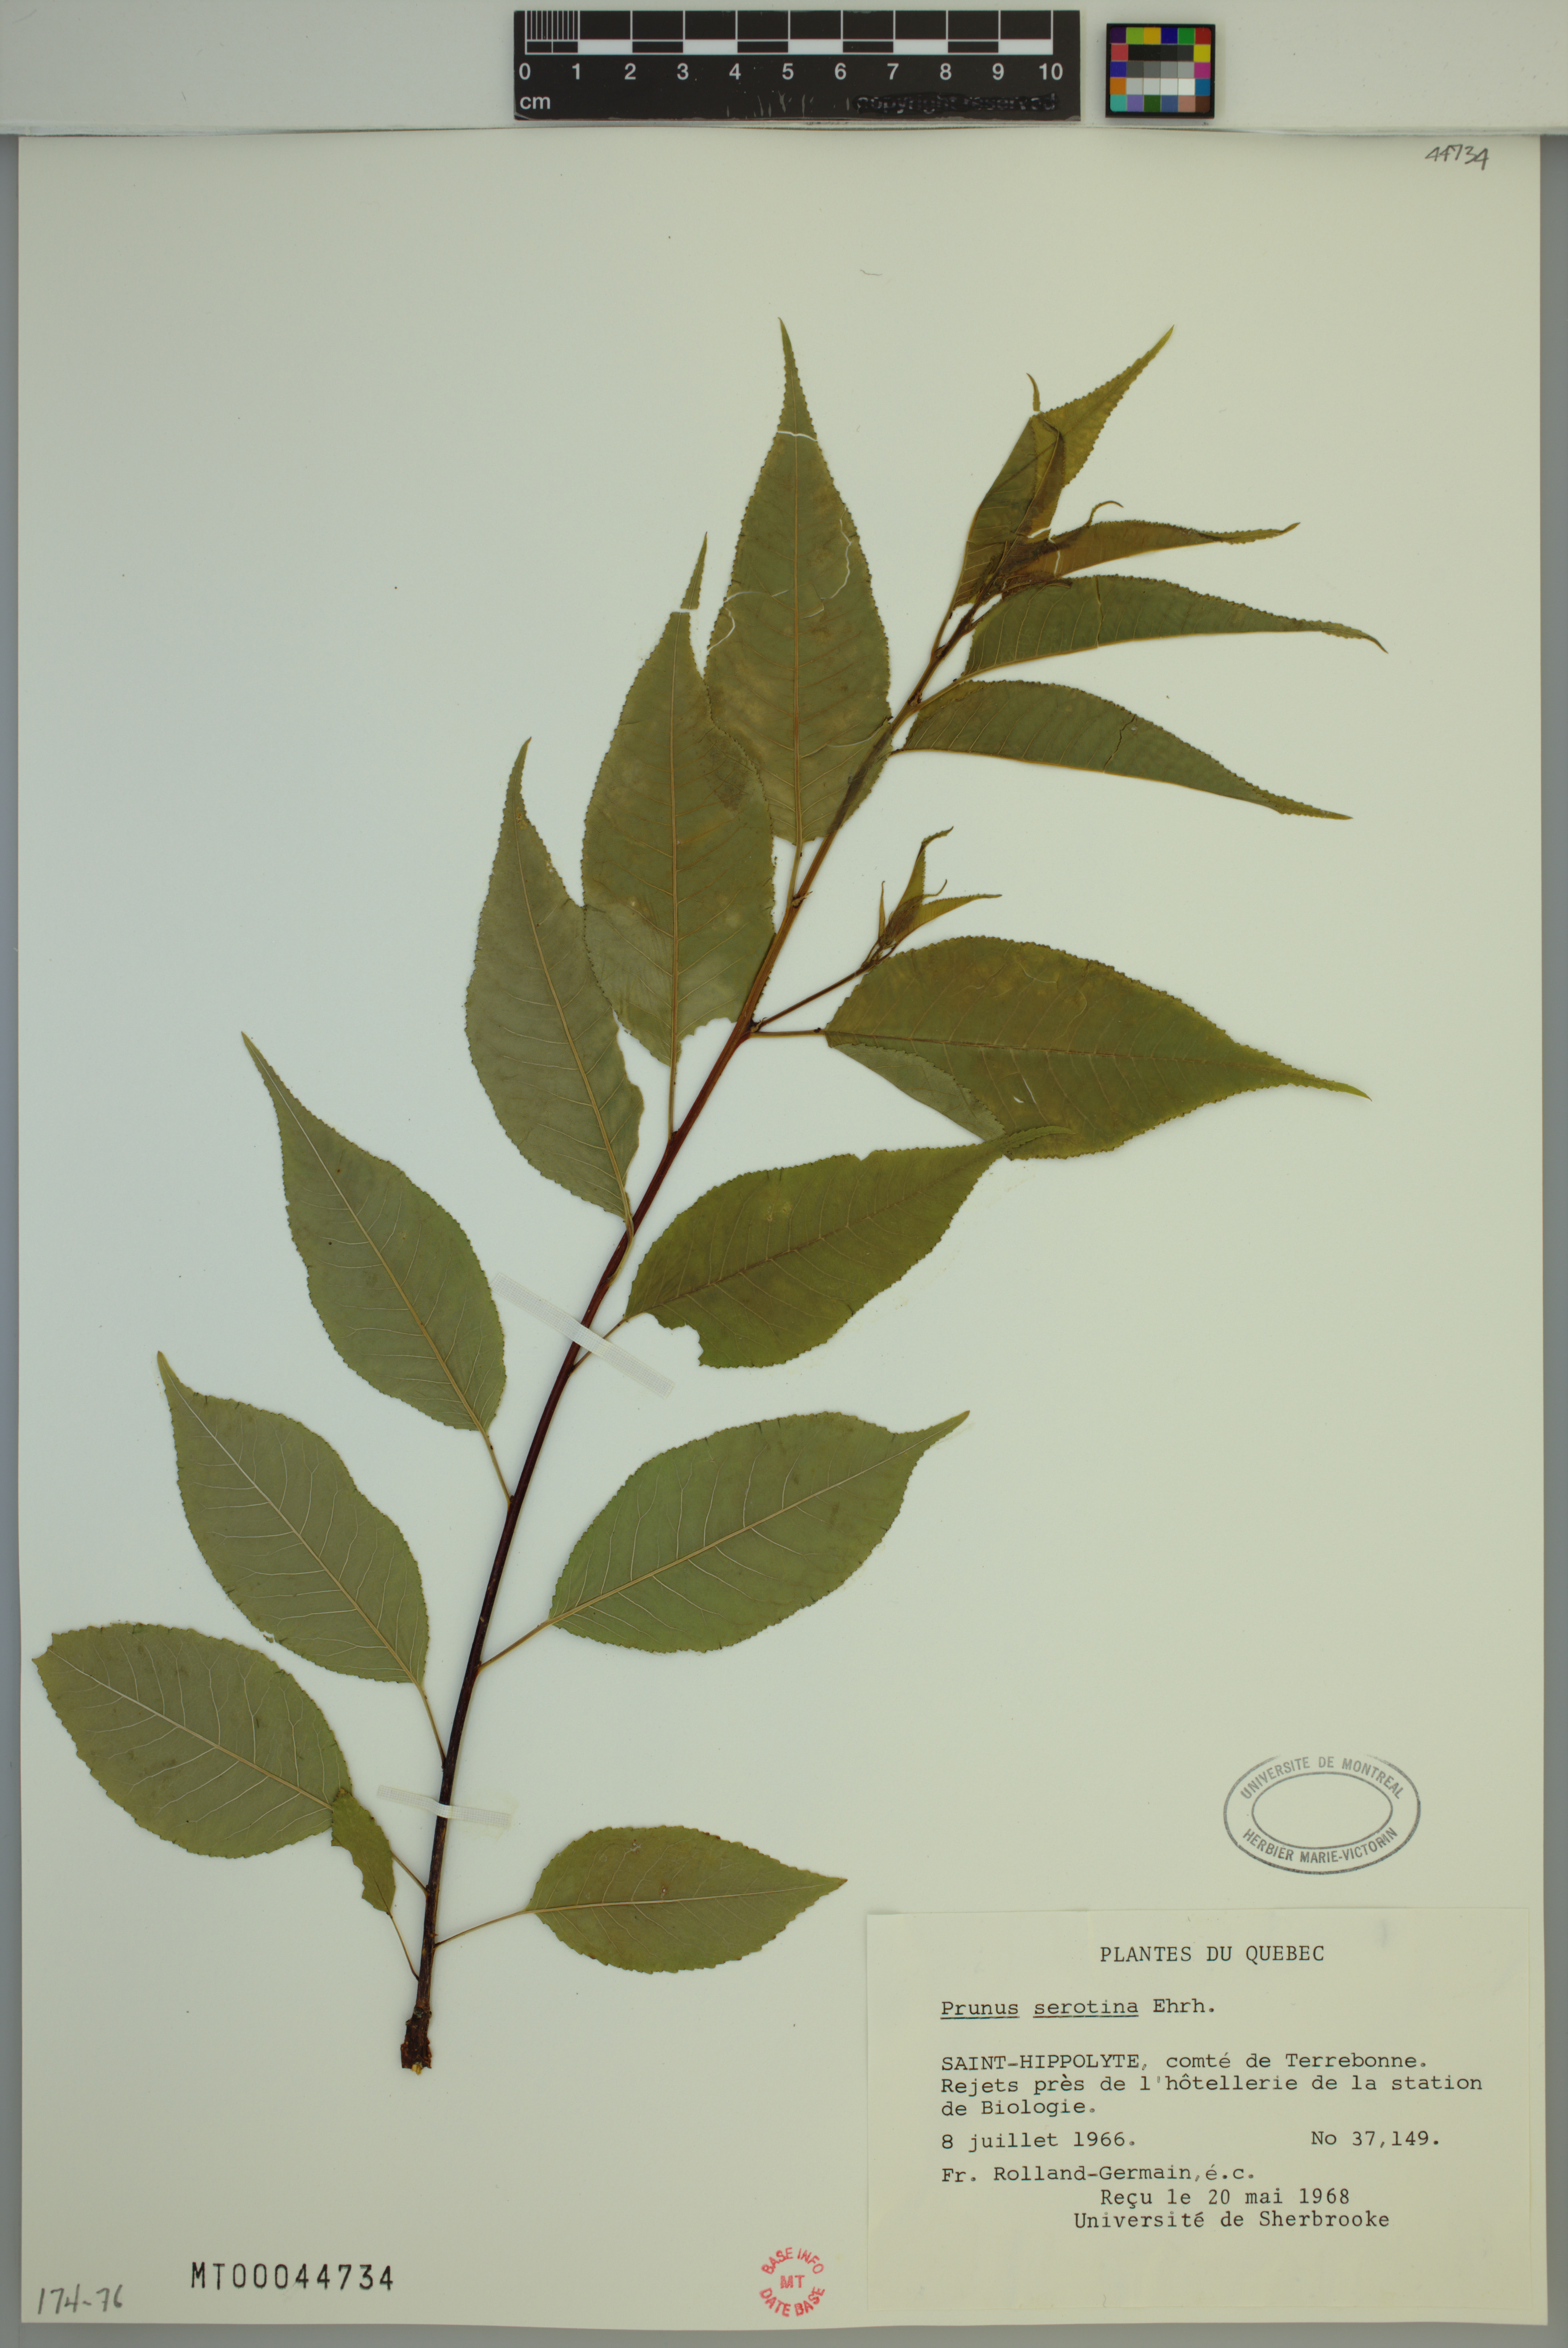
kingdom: Plantae
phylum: Tracheophyta
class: Magnoliopsida
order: Rosales
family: Rosaceae
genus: Prunus
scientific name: Prunus serotina
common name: Black cherry
